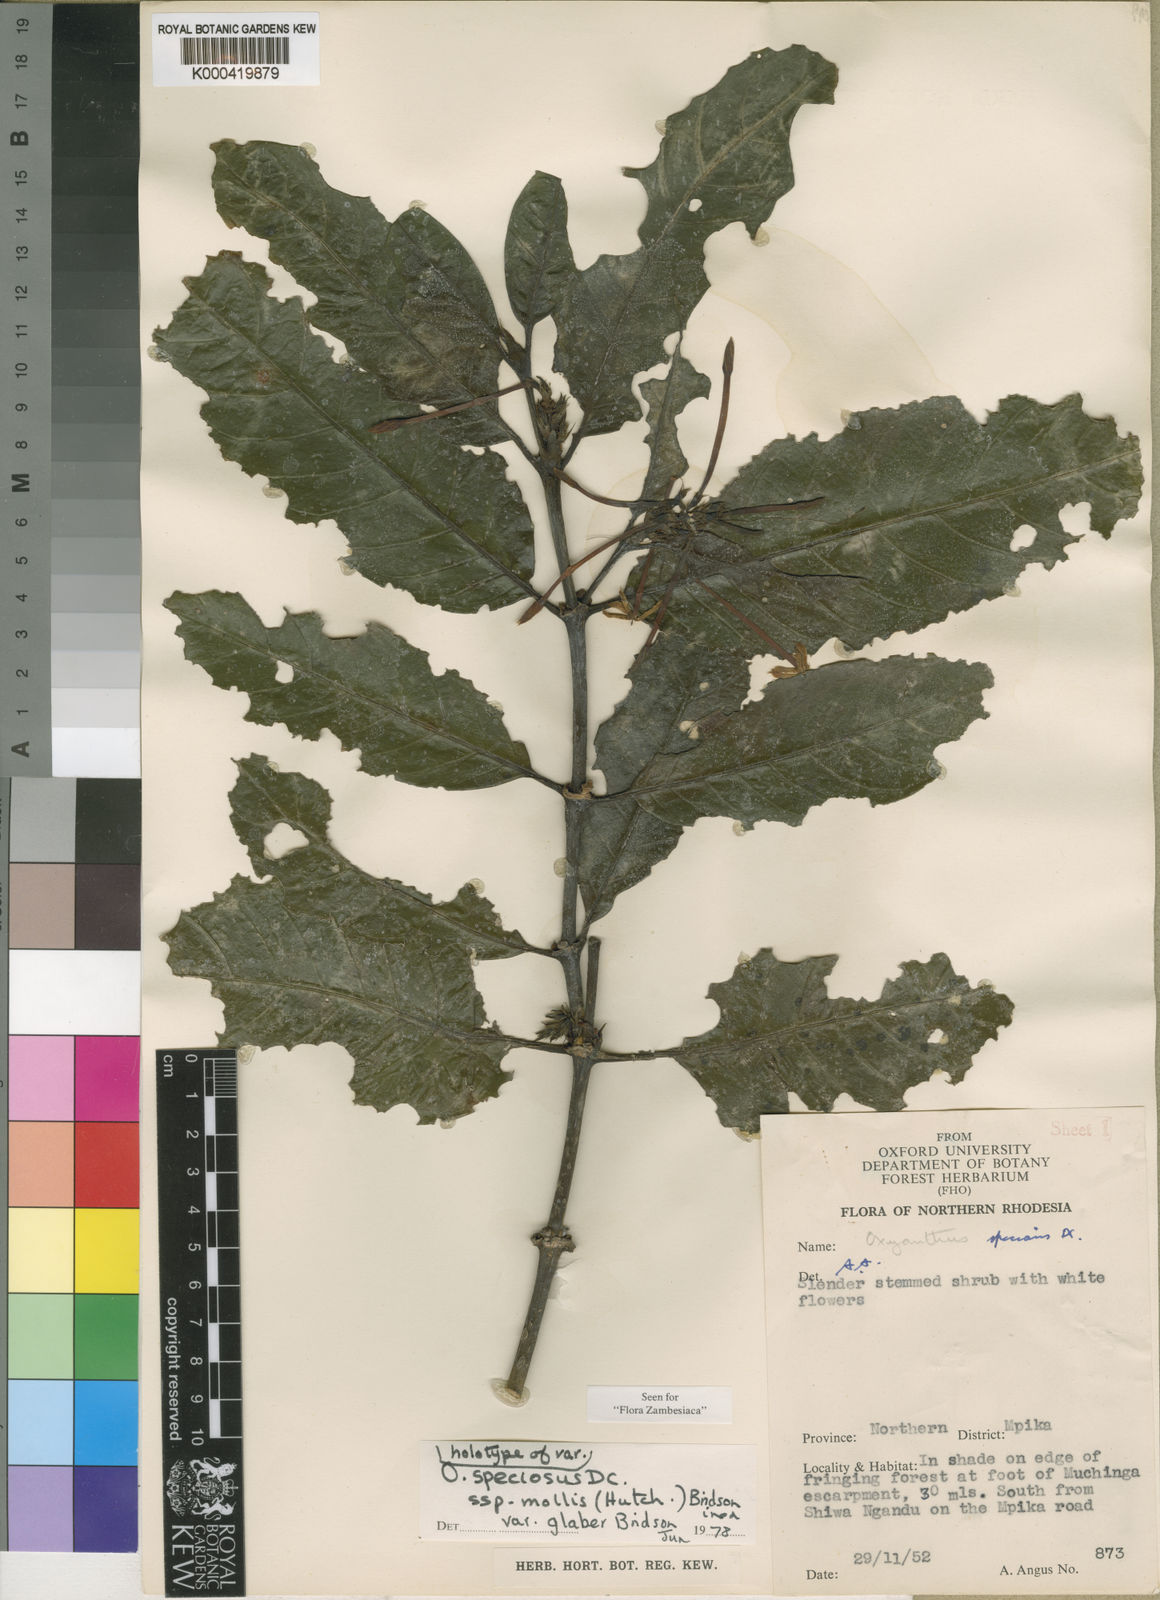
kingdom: Plantae
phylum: Tracheophyta
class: Magnoliopsida
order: Gentianales
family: Rubiaceae
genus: Oxyanthus
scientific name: Oxyanthus speciosus
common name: Whipstick loquat
